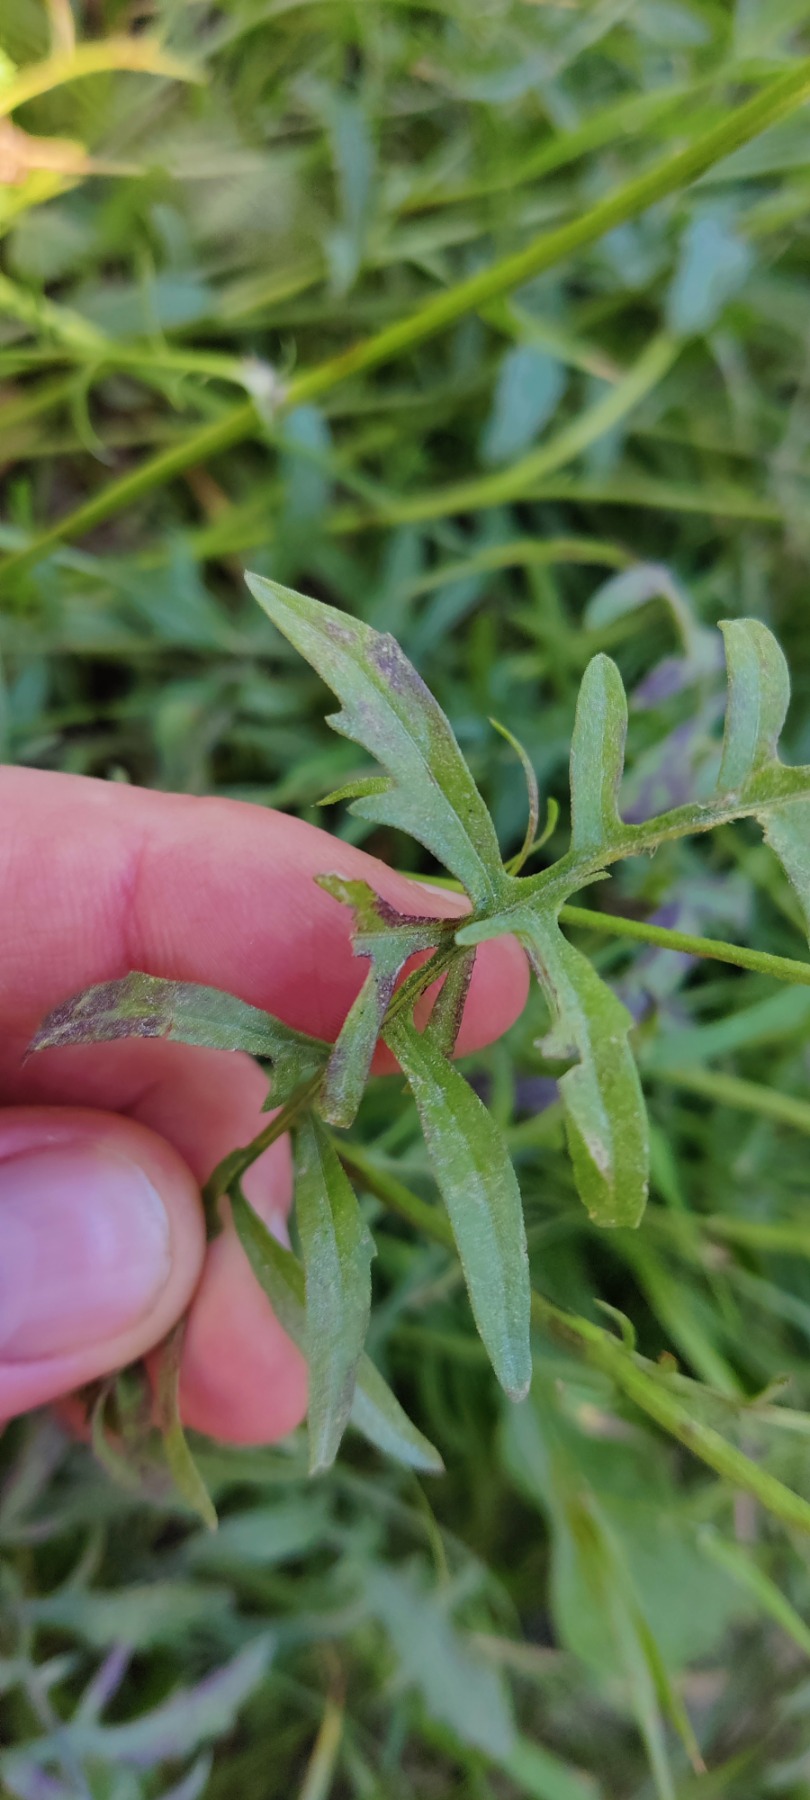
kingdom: Plantae
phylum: Tracheophyta
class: Magnoliopsida
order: Asterales
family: Asteraceae
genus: Centaurea
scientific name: Centaurea scabiosa
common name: Stor knopurt
